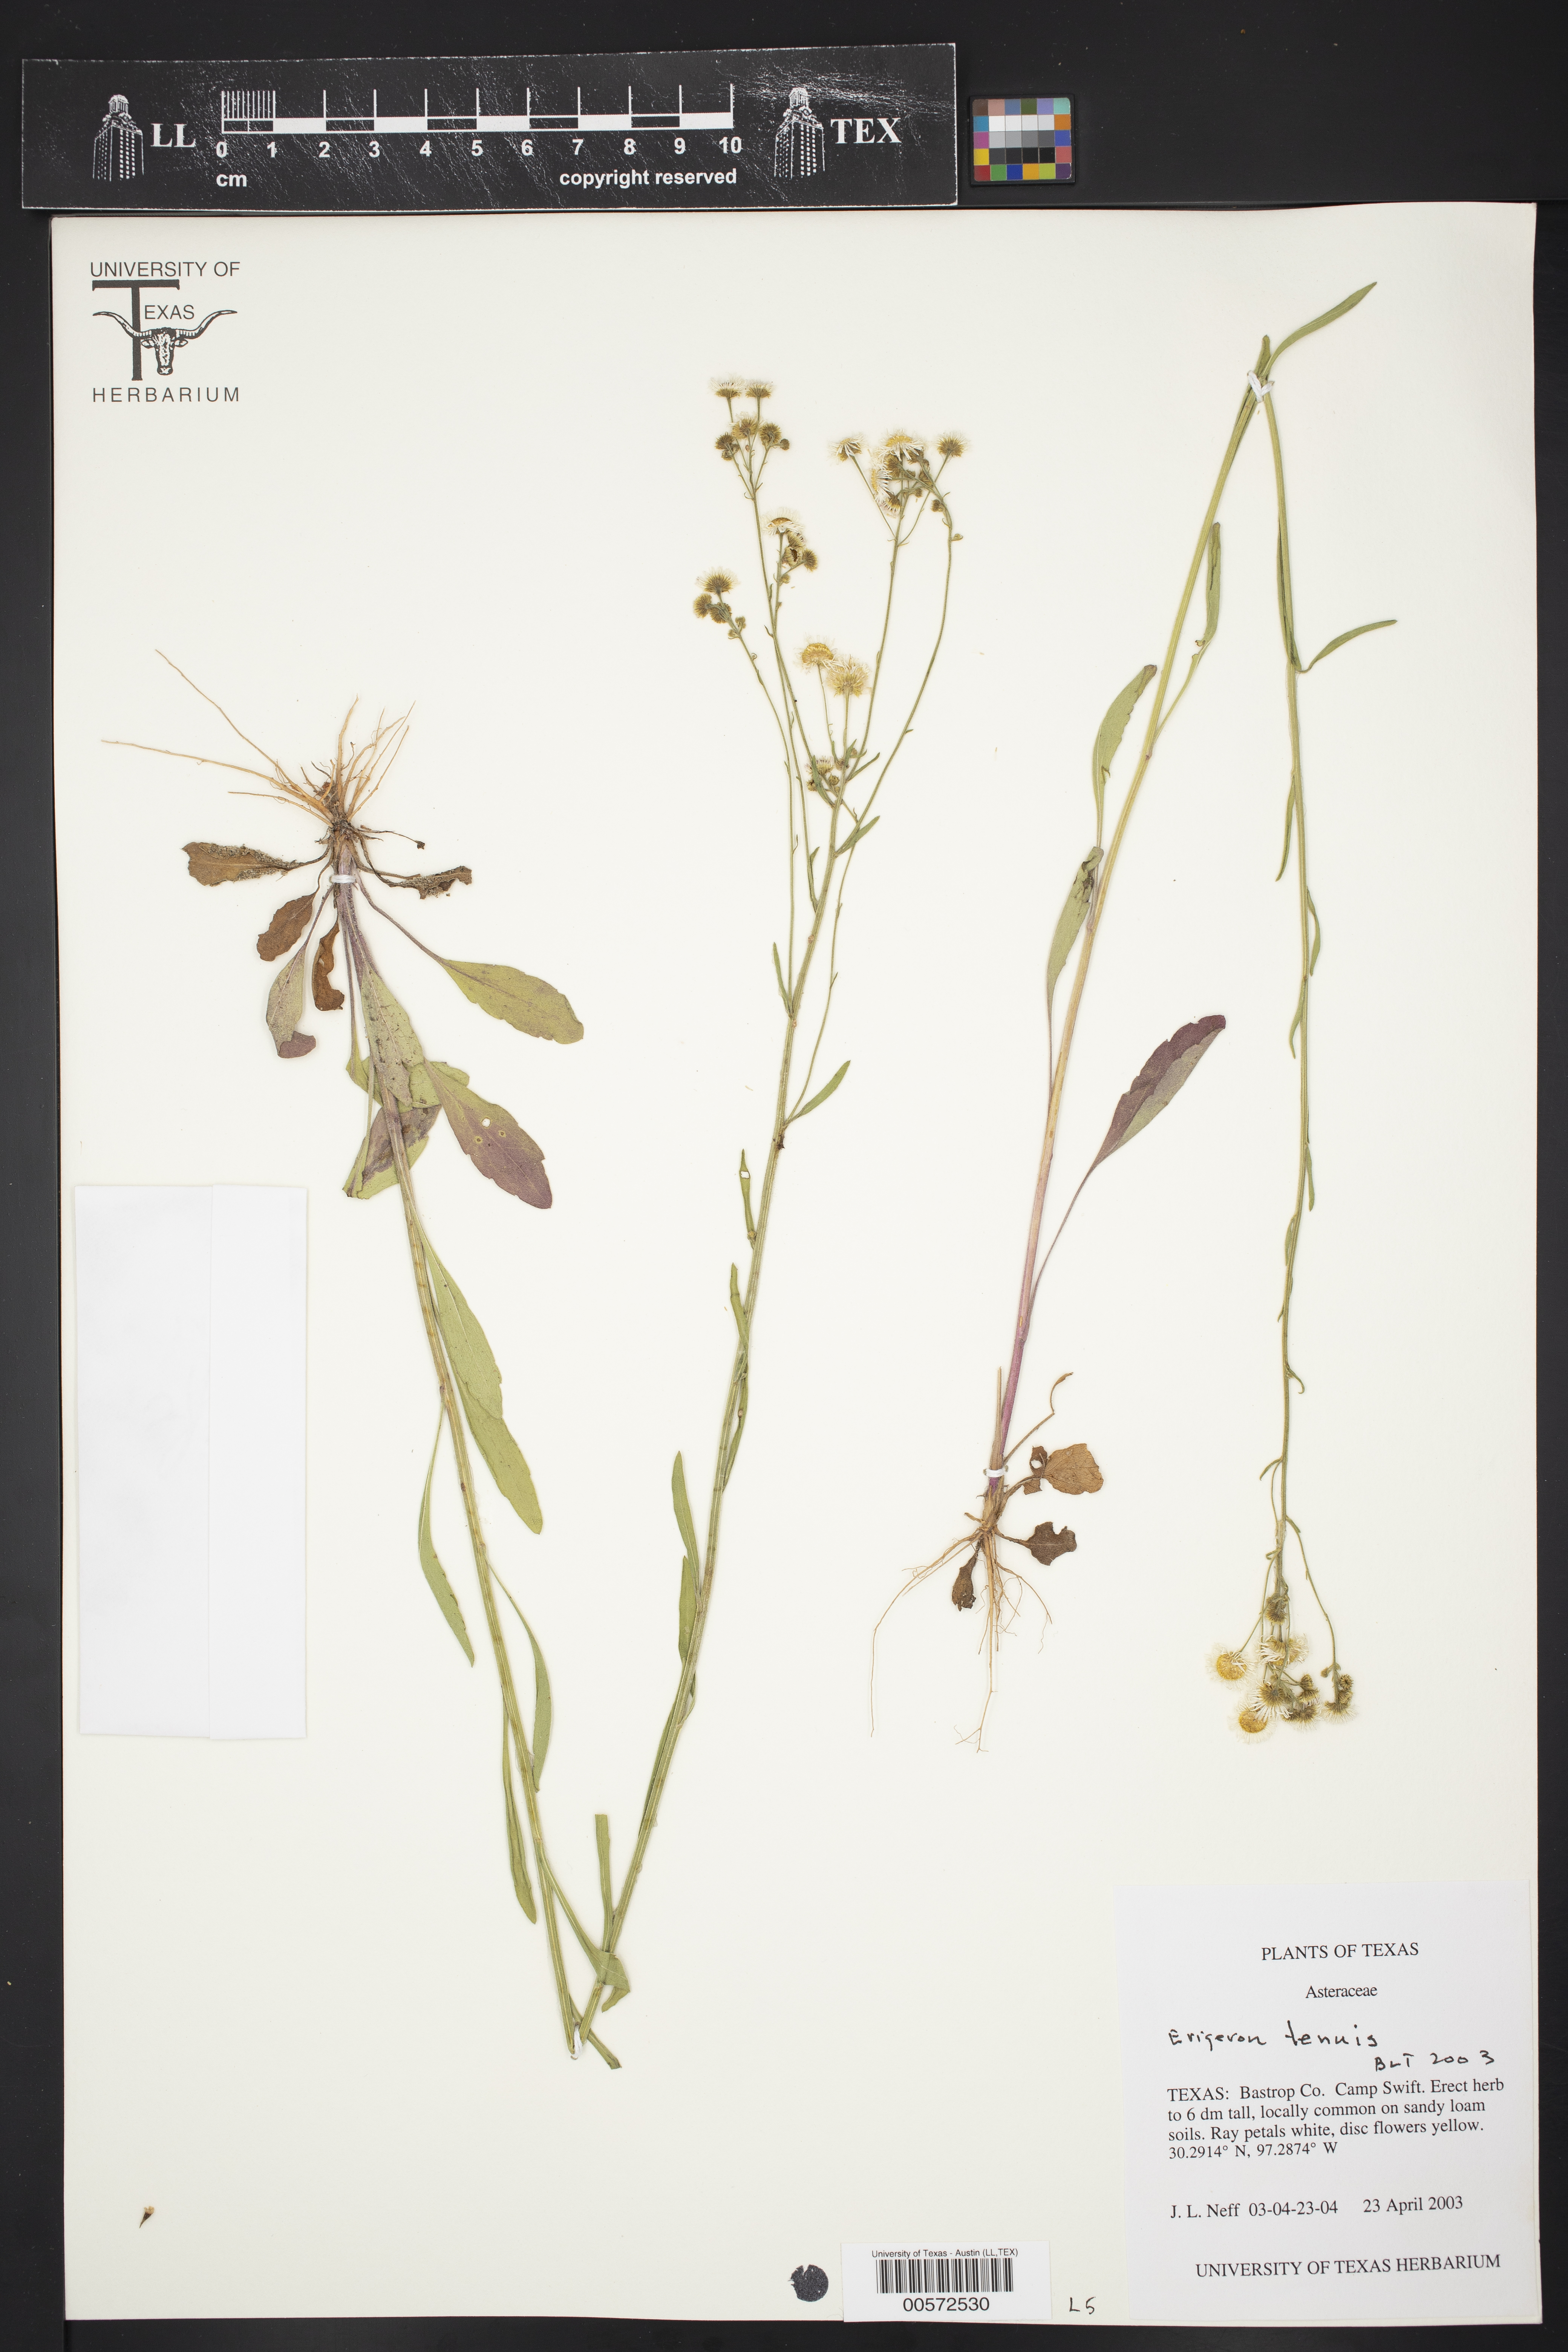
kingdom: Plantae
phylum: Tracheophyta
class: Magnoliopsida
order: Asterales
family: Asteraceae
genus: Erigeron
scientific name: Erigeron tenuis
